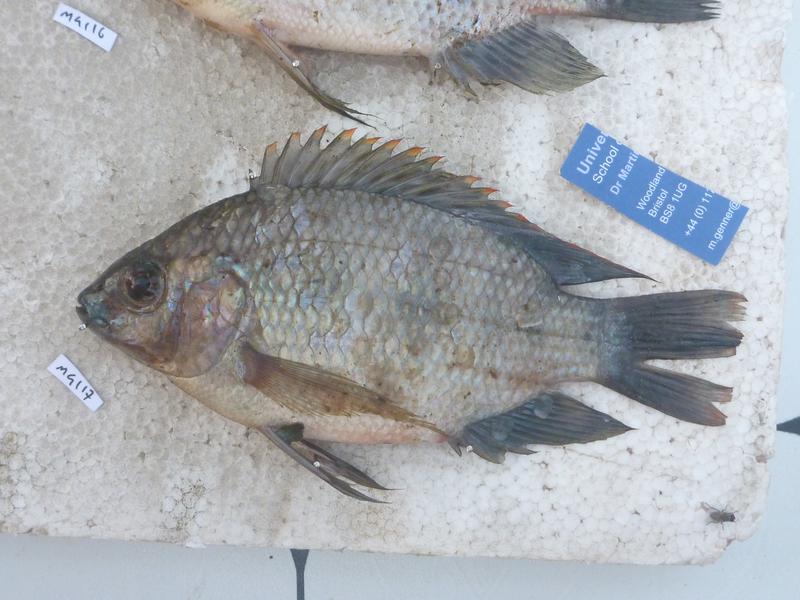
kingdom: Animalia
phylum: Chordata
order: Perciformes
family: Cichlidae
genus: Oreochromis
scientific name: Oreochromis upembae
